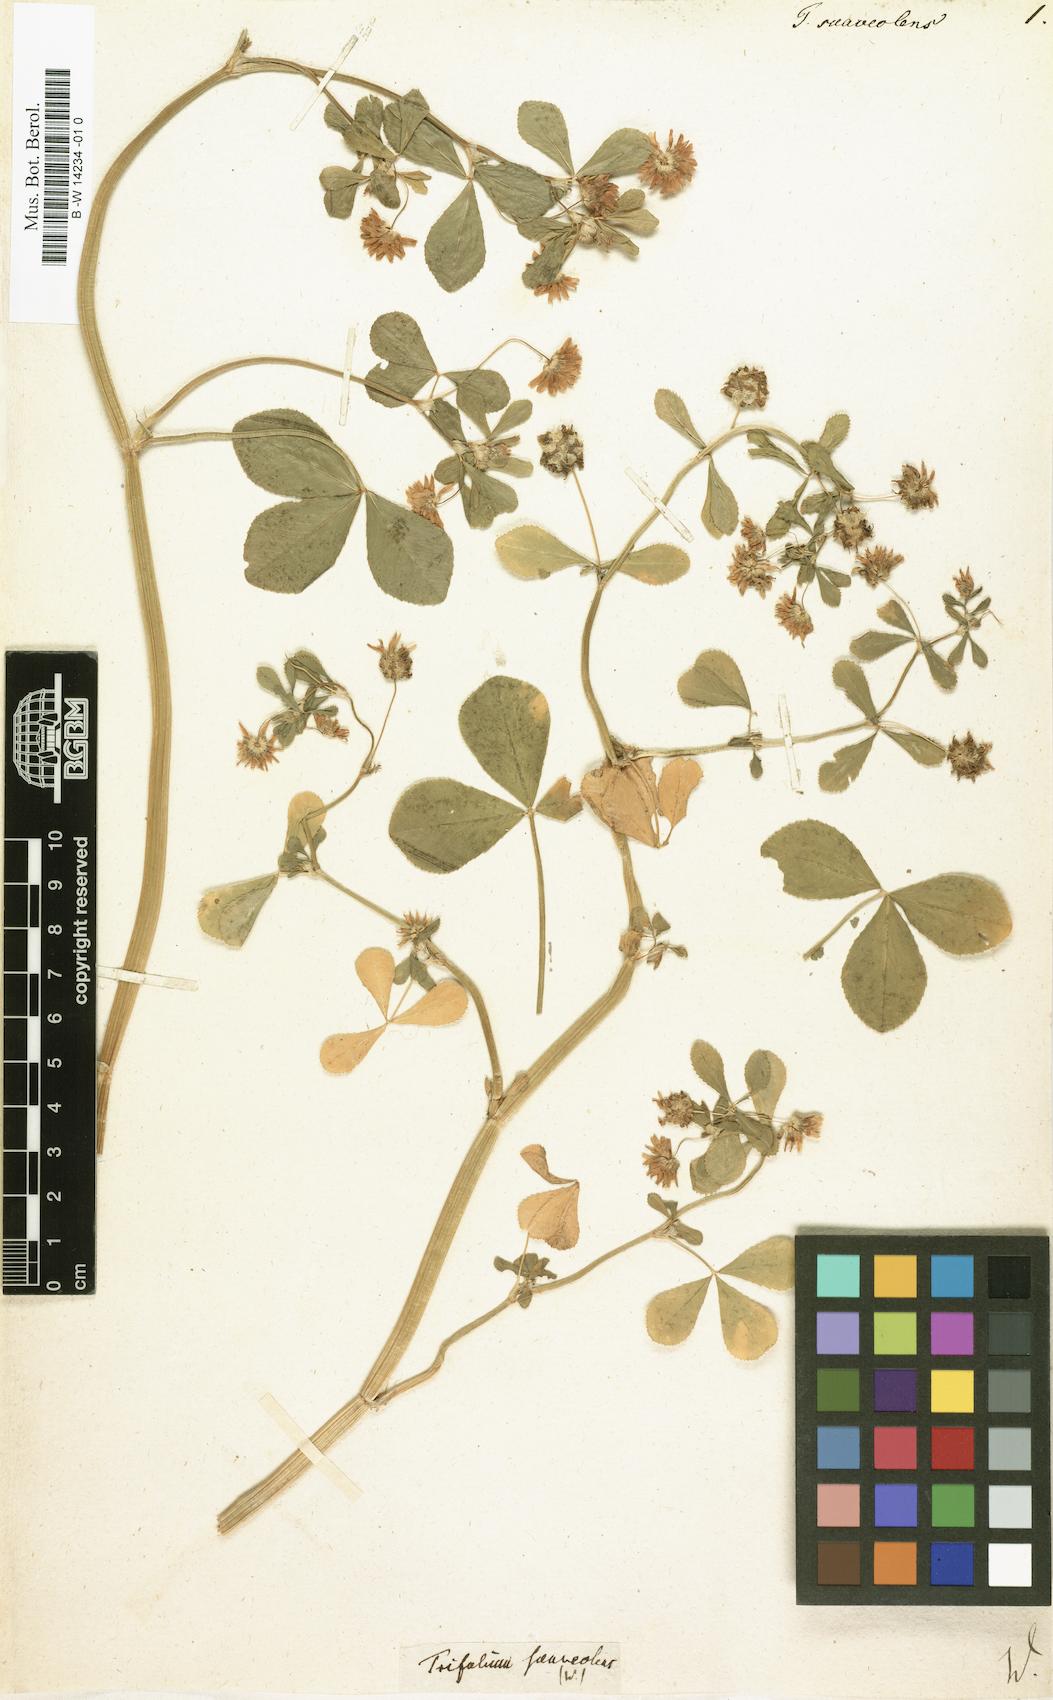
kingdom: Plantae
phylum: Tracheophyta
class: Magnoliopsida
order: Fabales
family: Fabaceae
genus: Trifolium
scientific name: Trifolium resupinatum
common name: Reversed clover
